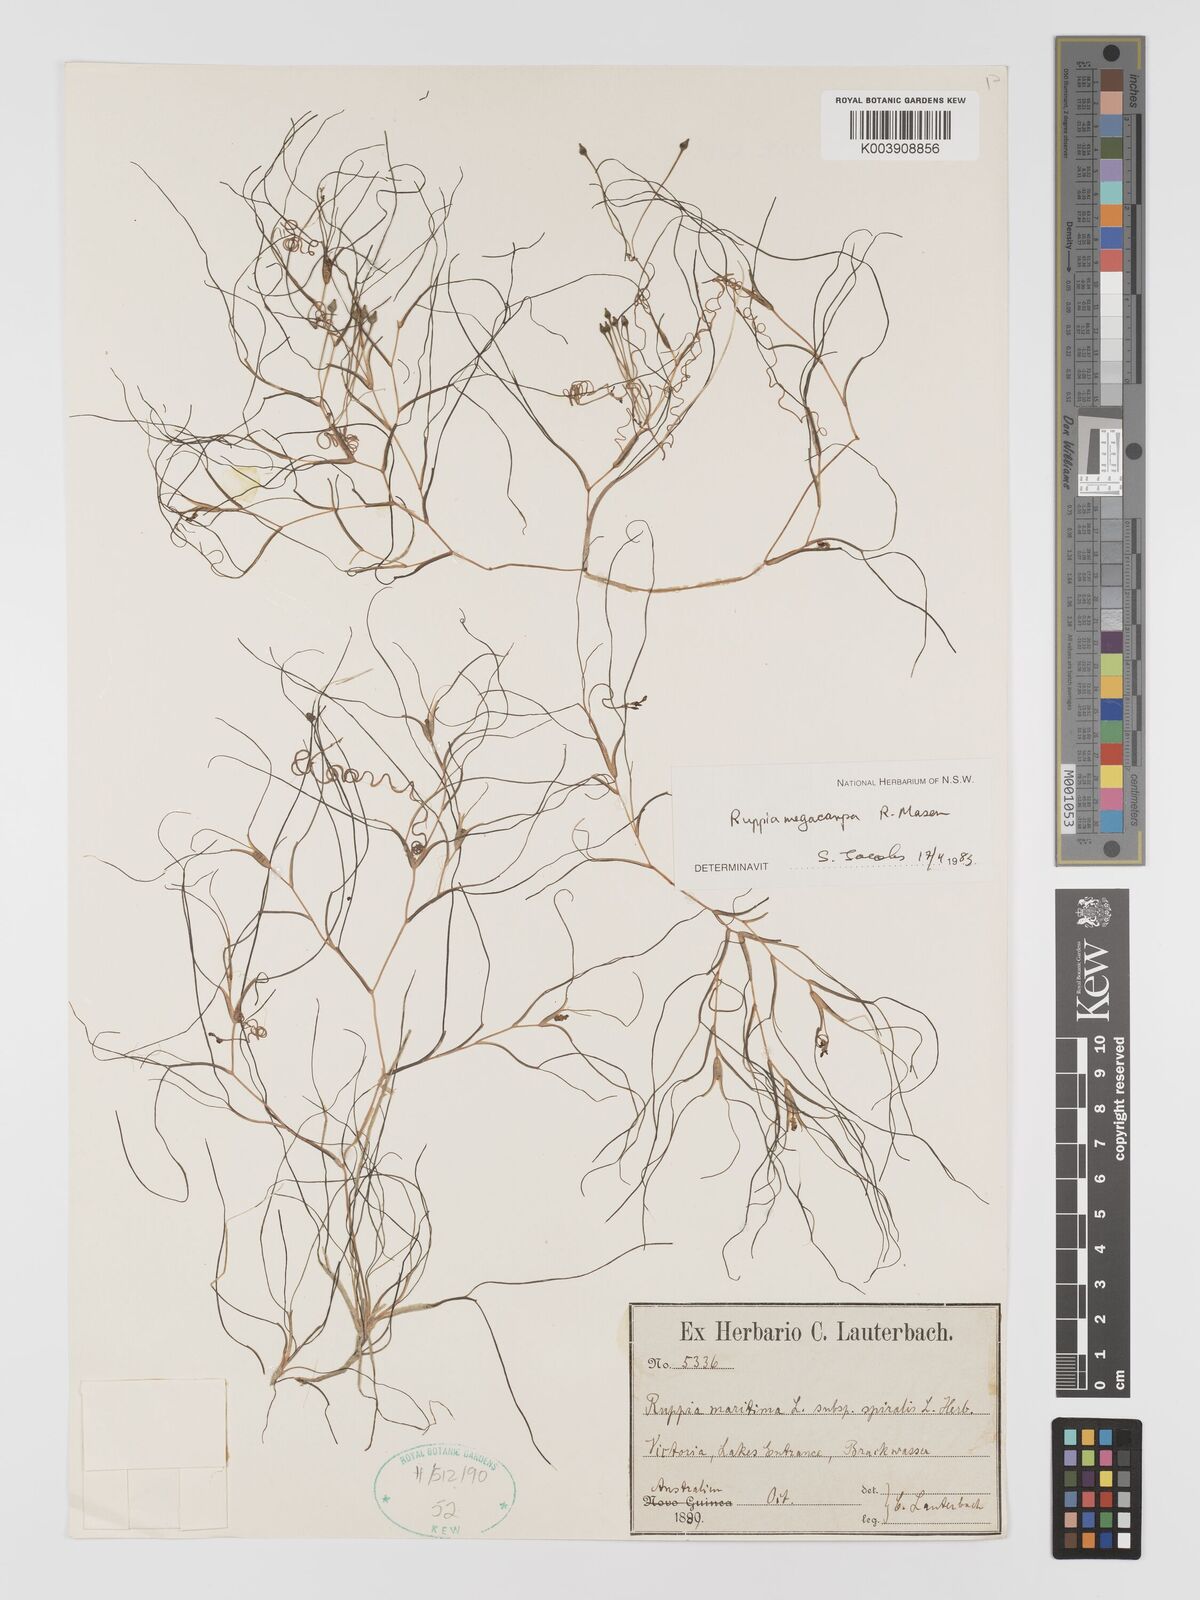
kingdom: Plantae
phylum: Tracheophyta
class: Liliopsida
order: Alismatales
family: Ruppiaceae
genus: Ruppia
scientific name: Ruppia megacarpa
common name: Large-fruit seatassel
